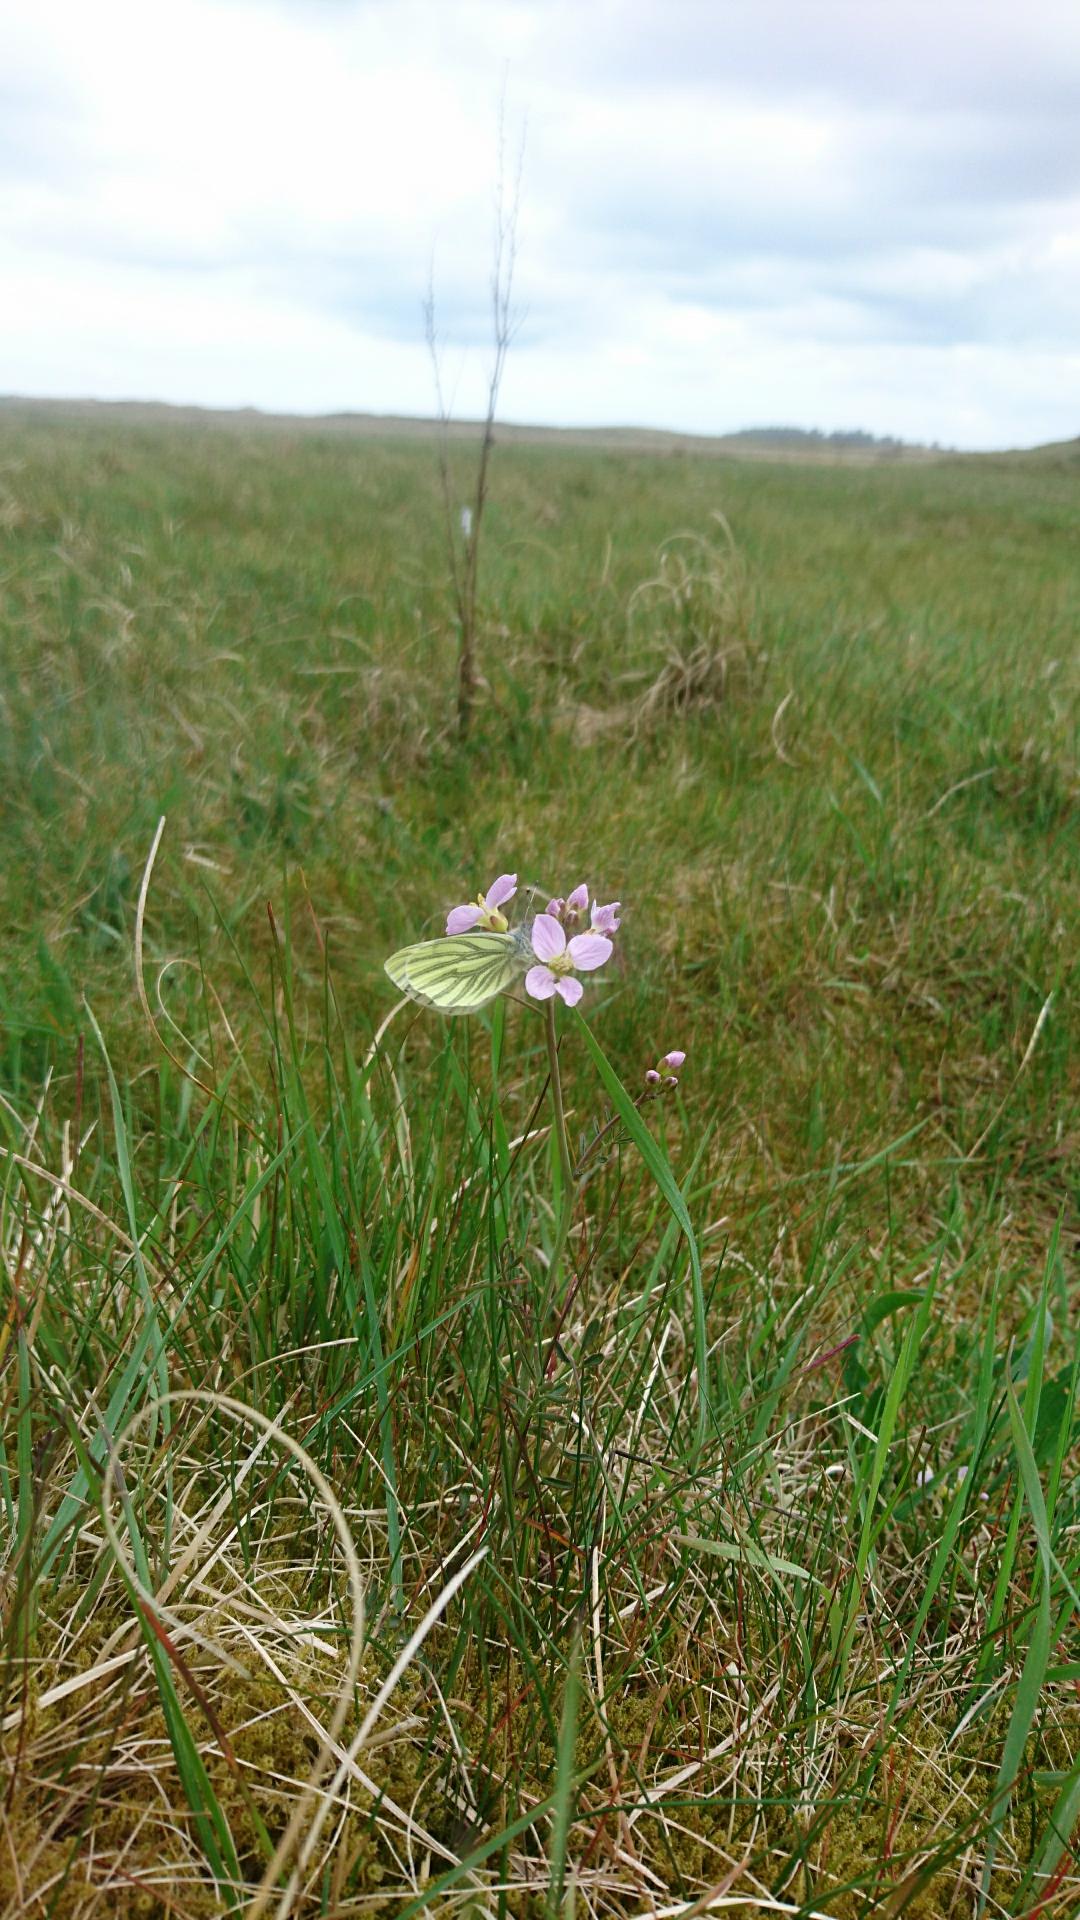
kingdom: Animalia
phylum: Arthropoda
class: Insecta
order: Lepidoptera
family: Pieridae
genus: Pieris
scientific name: Pieris napi
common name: Grønåret kålsommerfugl
